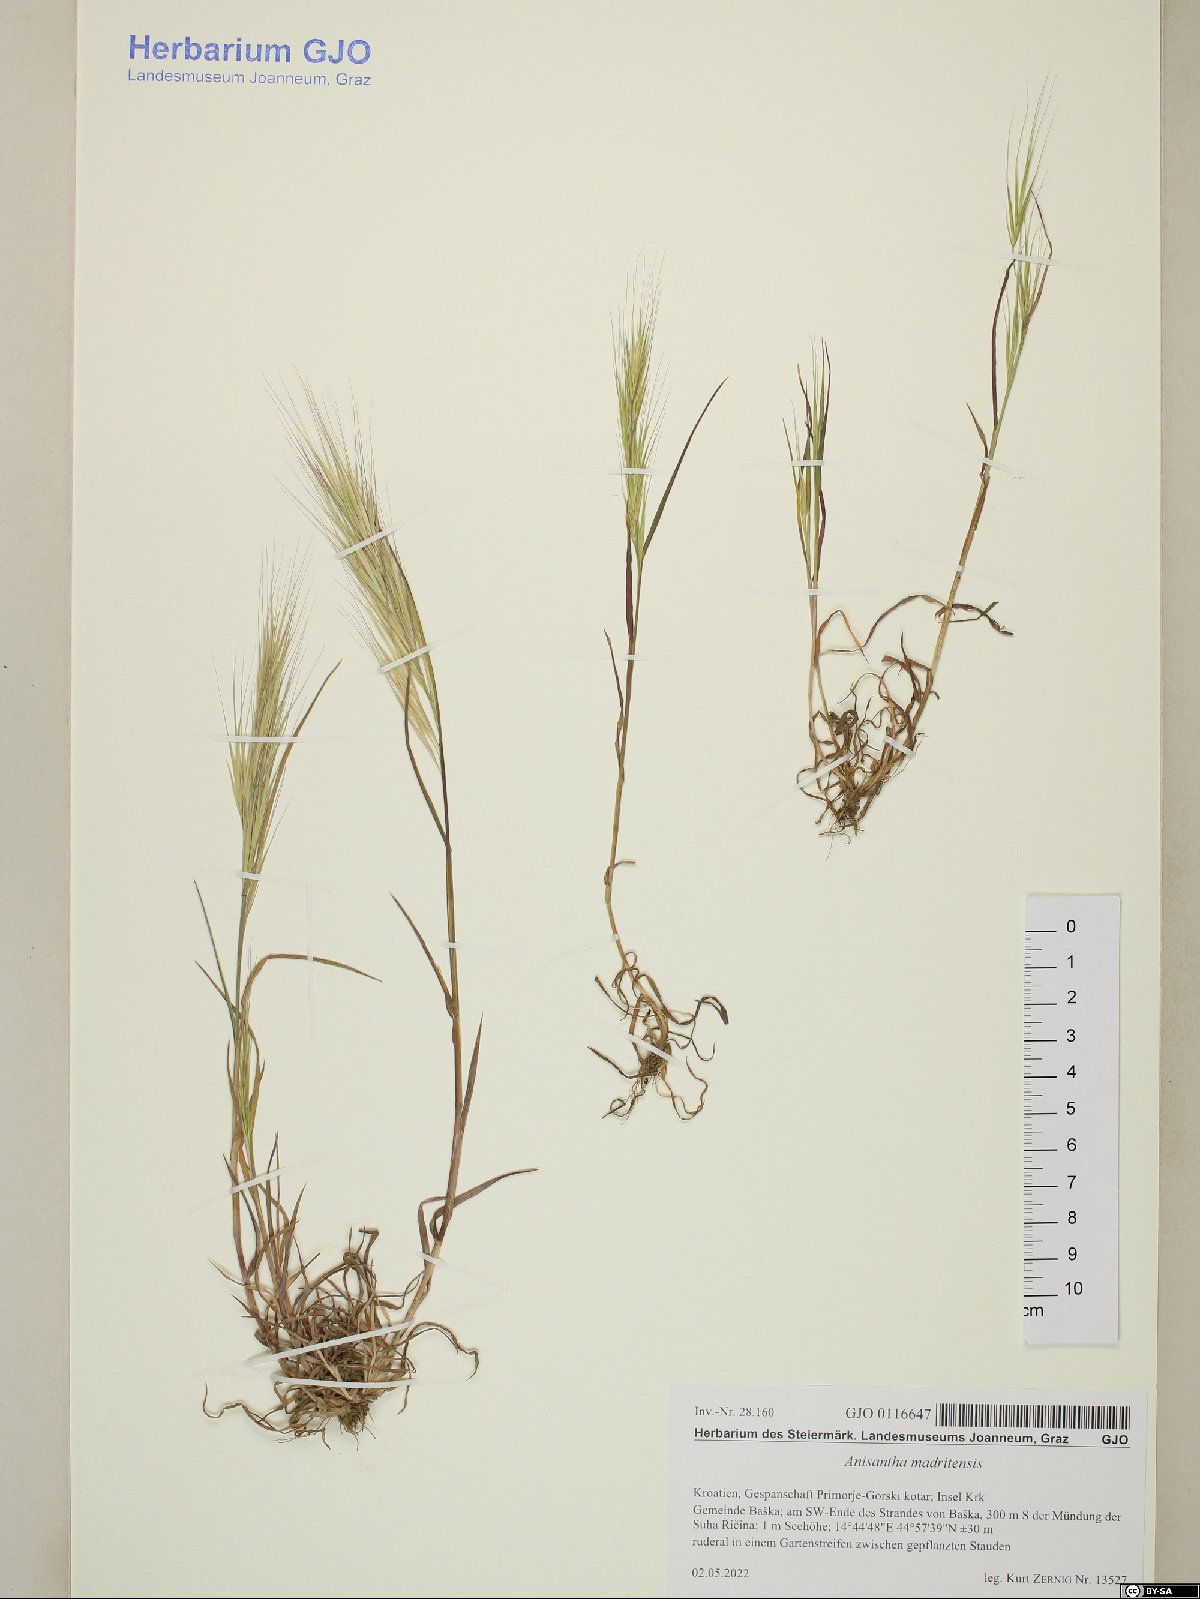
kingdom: Plantae
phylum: Tracheophyta
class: Liliopsida
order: Poales
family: Poaceae
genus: Bromus
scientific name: Bromus madritensis
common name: Compact brome
